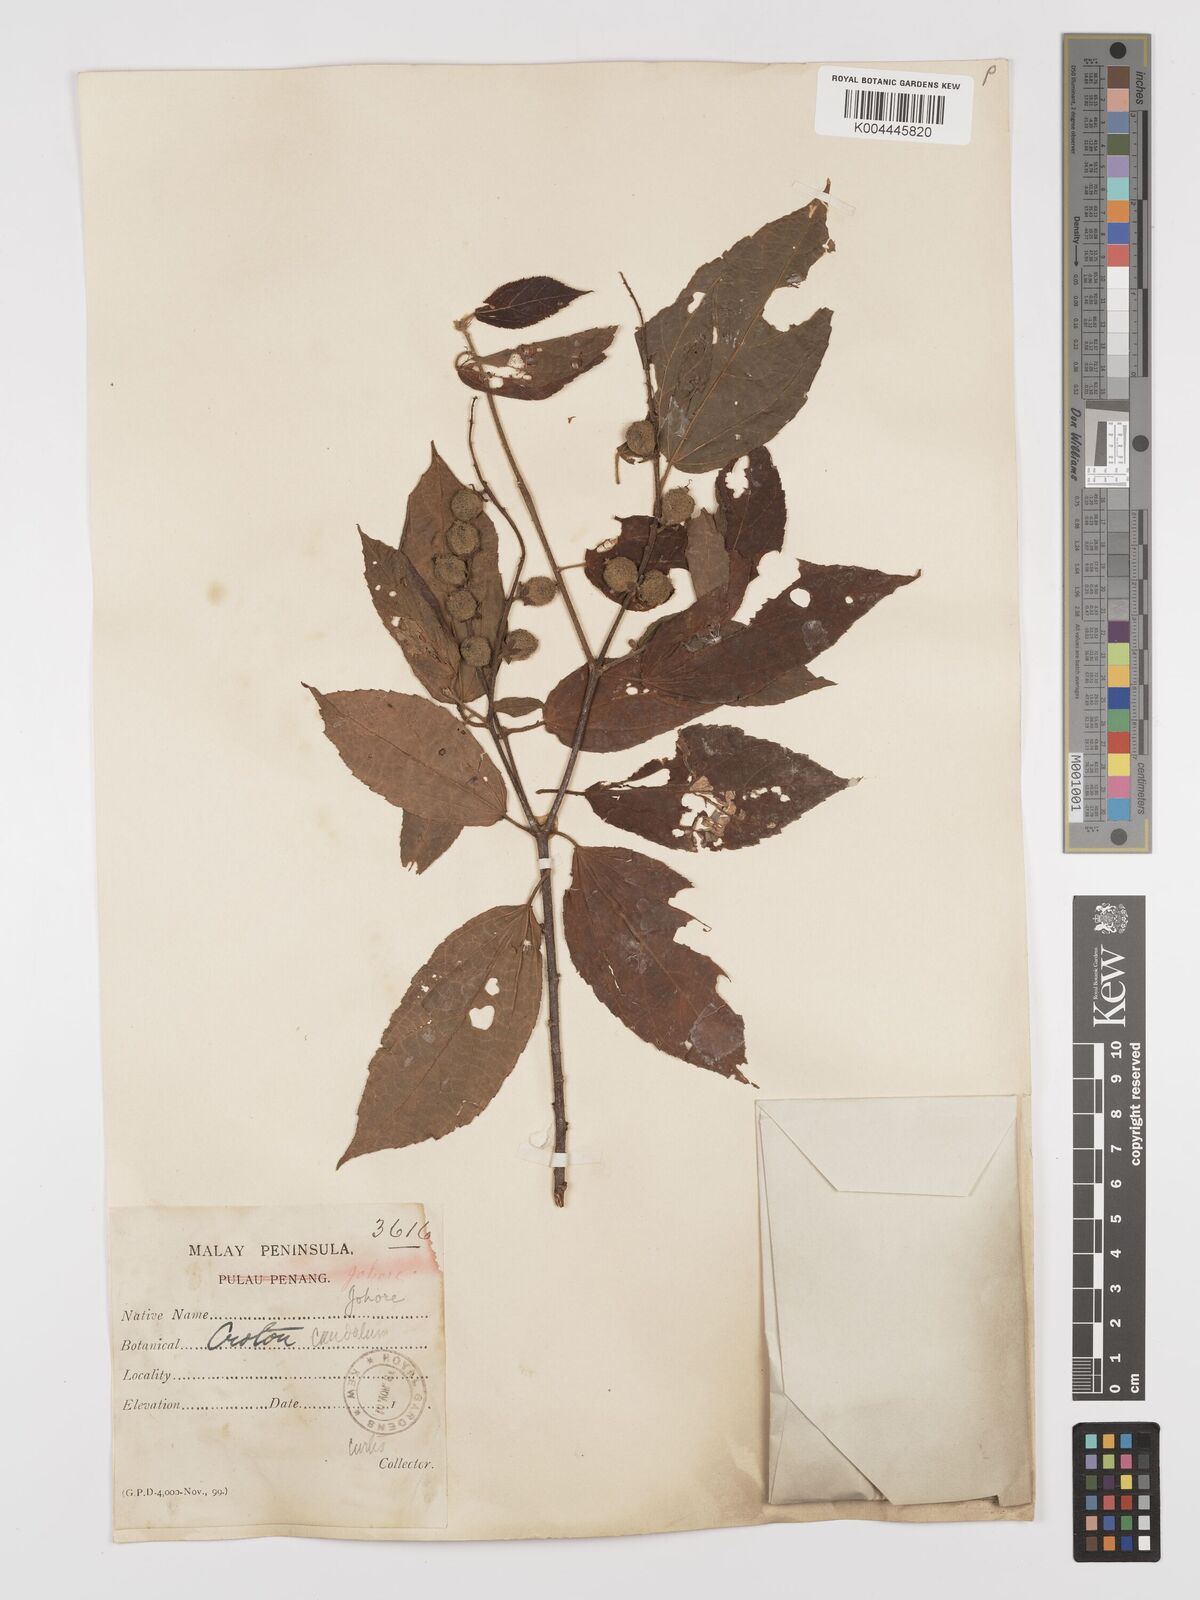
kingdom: Plantae
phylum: Tracheophyta
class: Magnoliopsida
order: Malpighiales
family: Euphorbiaceae
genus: Croton
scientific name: Croton caudatus
